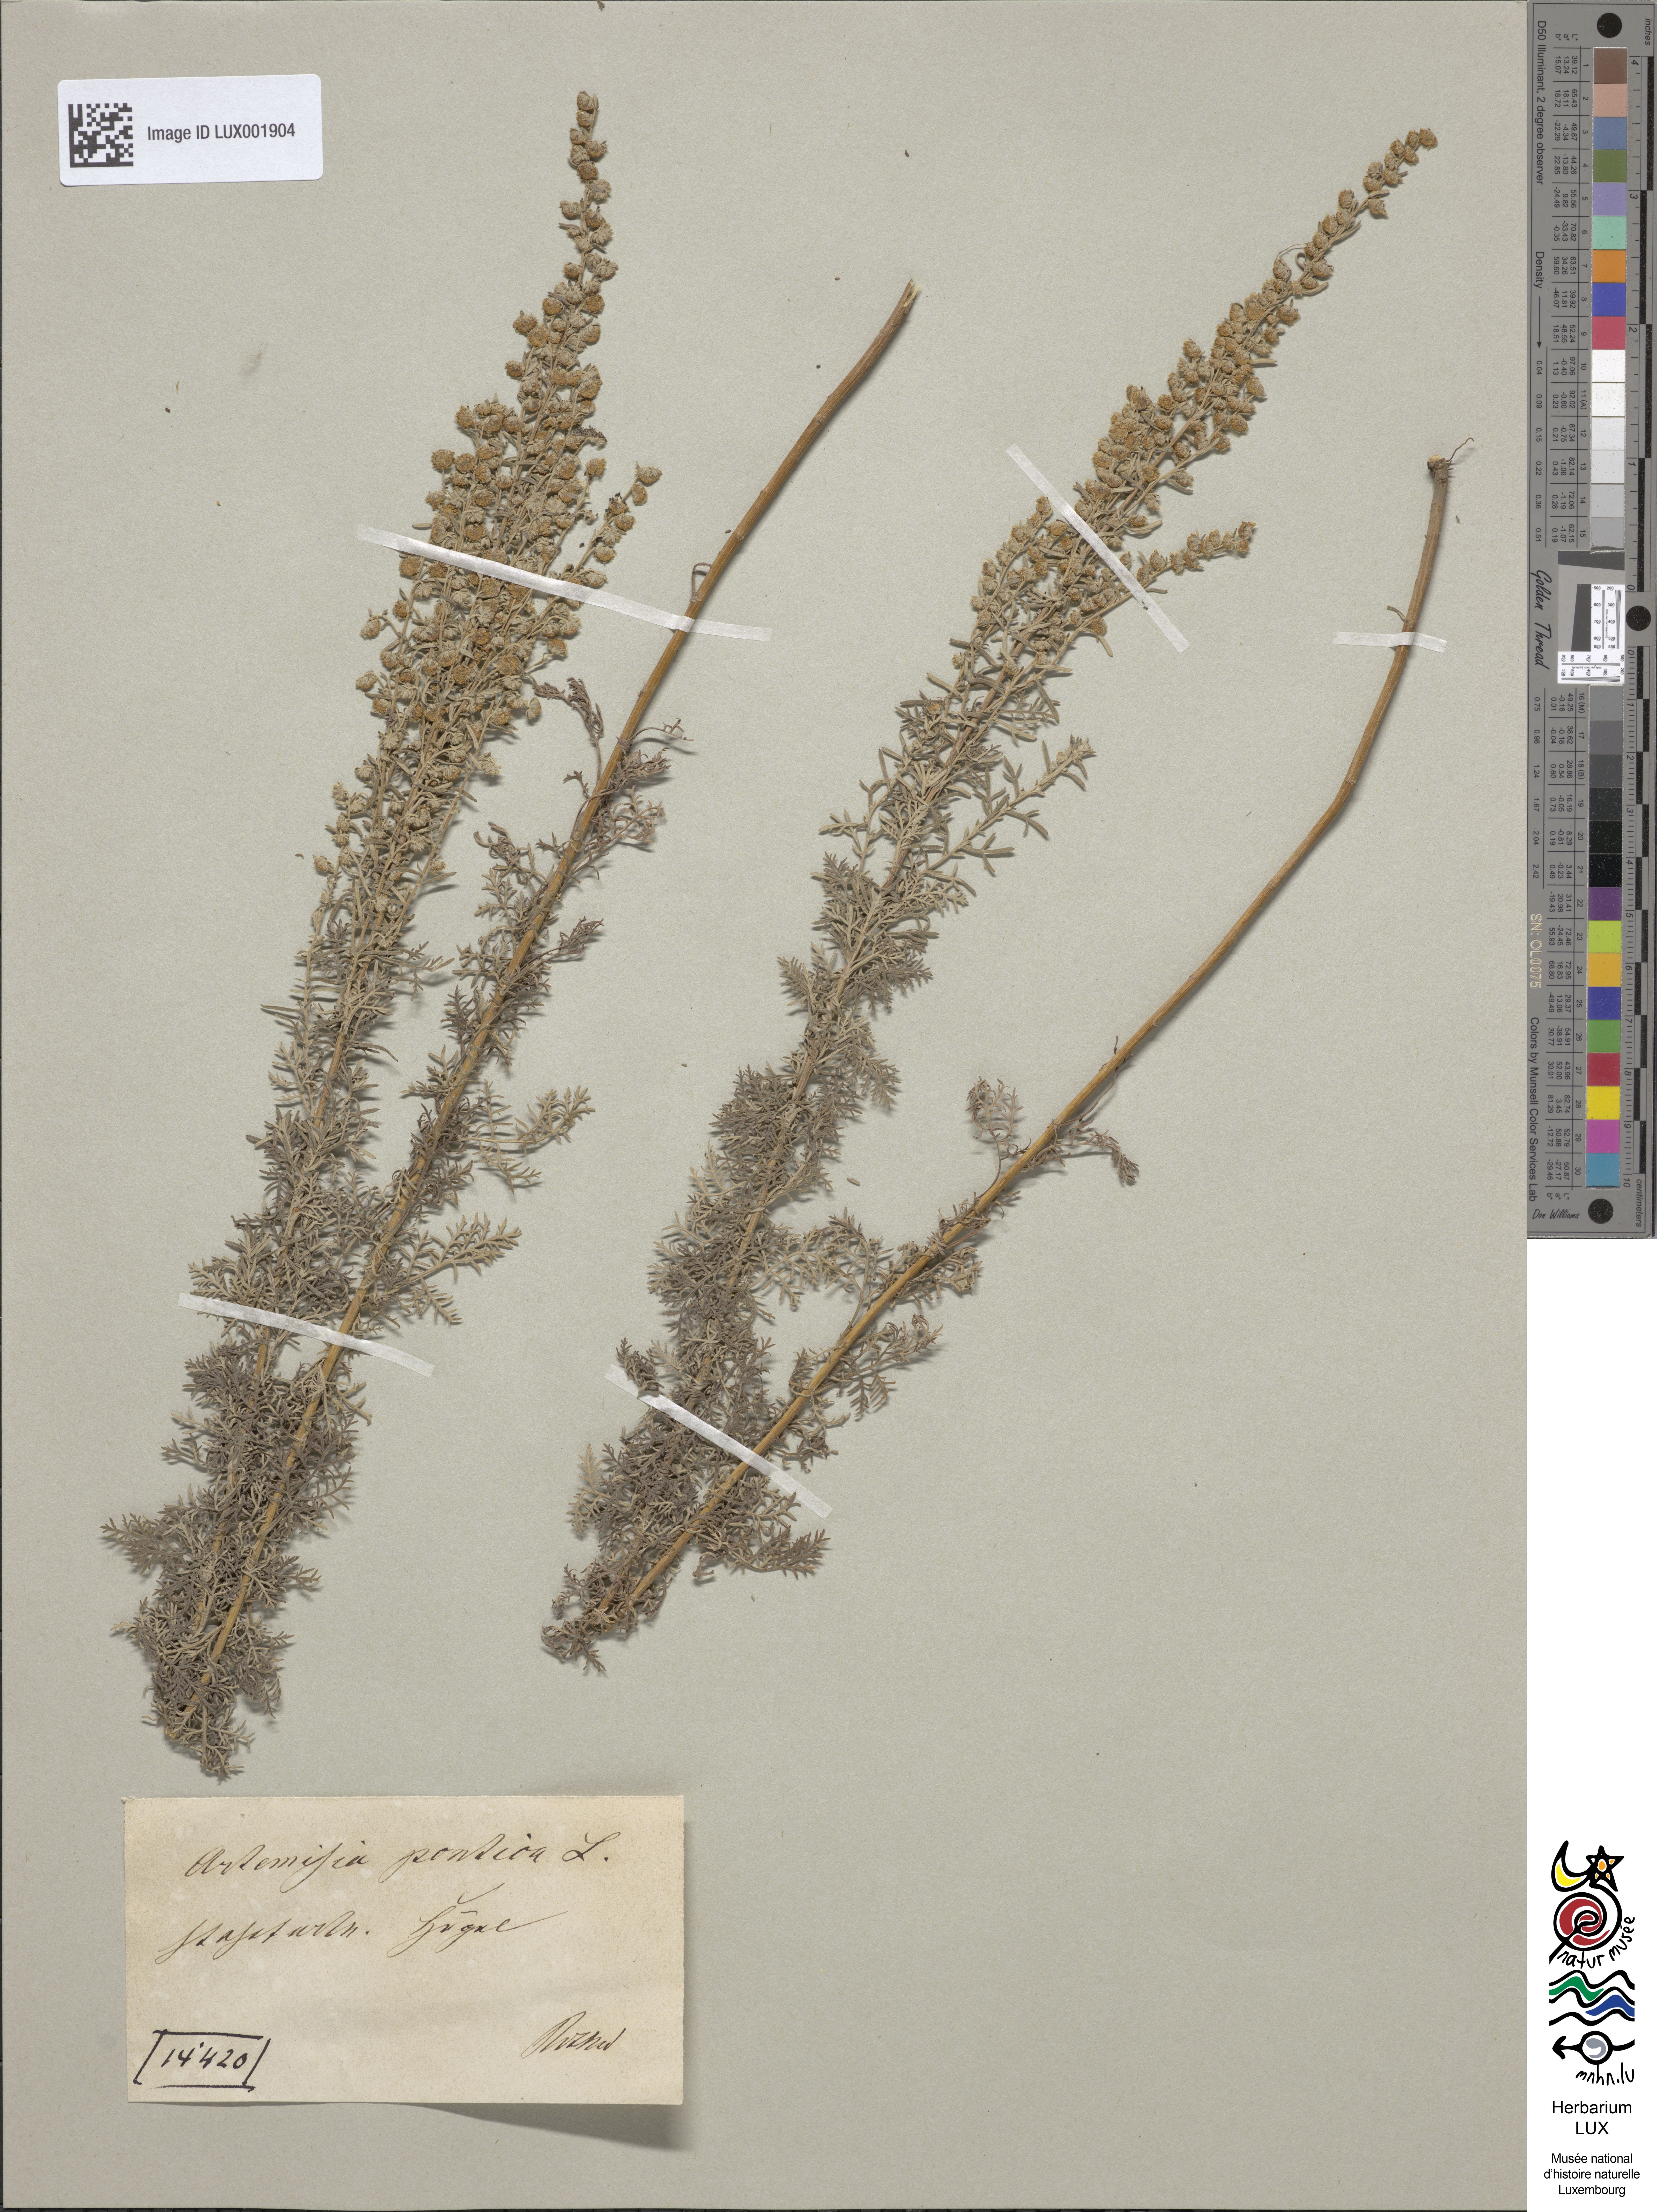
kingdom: Plantae
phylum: Tracheophyta
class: Magnoliopsida
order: Asterales
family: Asteraceae
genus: Artemisia
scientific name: Artemisia pontica
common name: Roman wormwood
